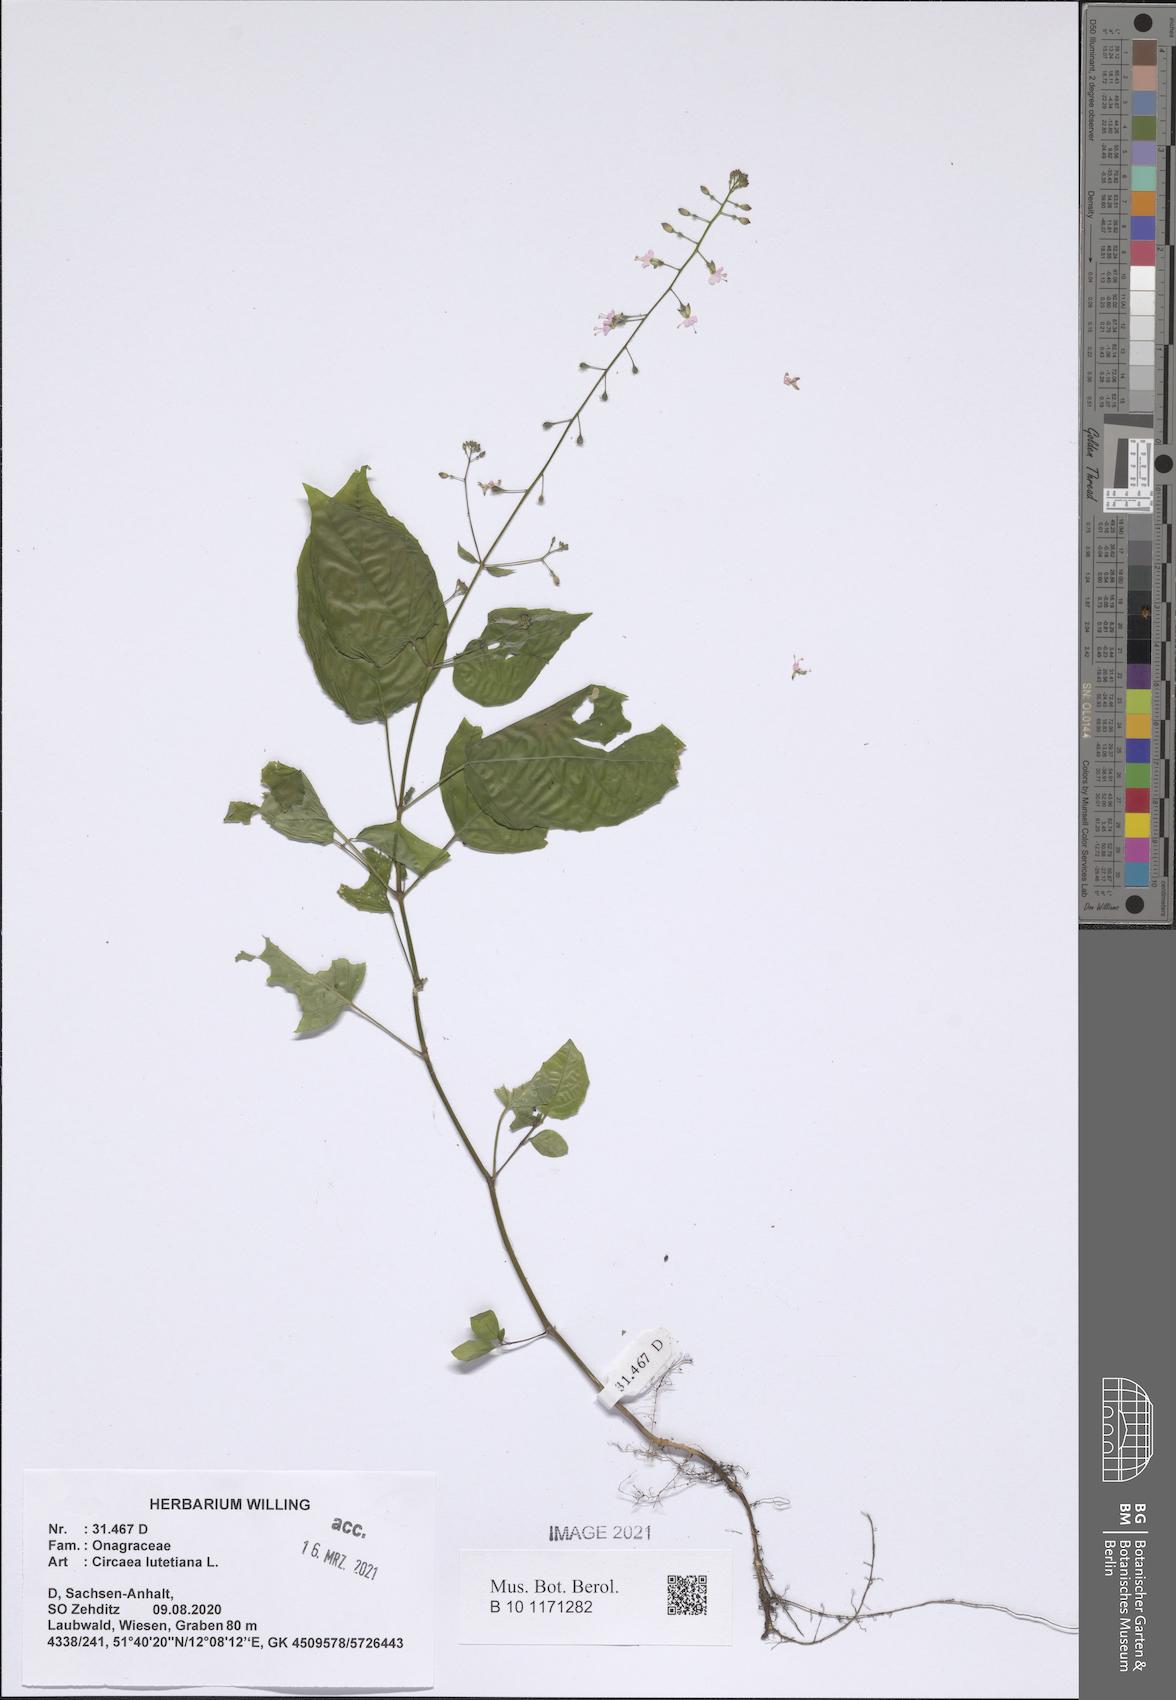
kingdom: Plantae
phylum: Tracheophyta
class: Magnoliopsida
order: Myrtales
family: Onagraceae
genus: Circaea
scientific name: Circaea lutetiana
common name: Enchanter's-nightshade
